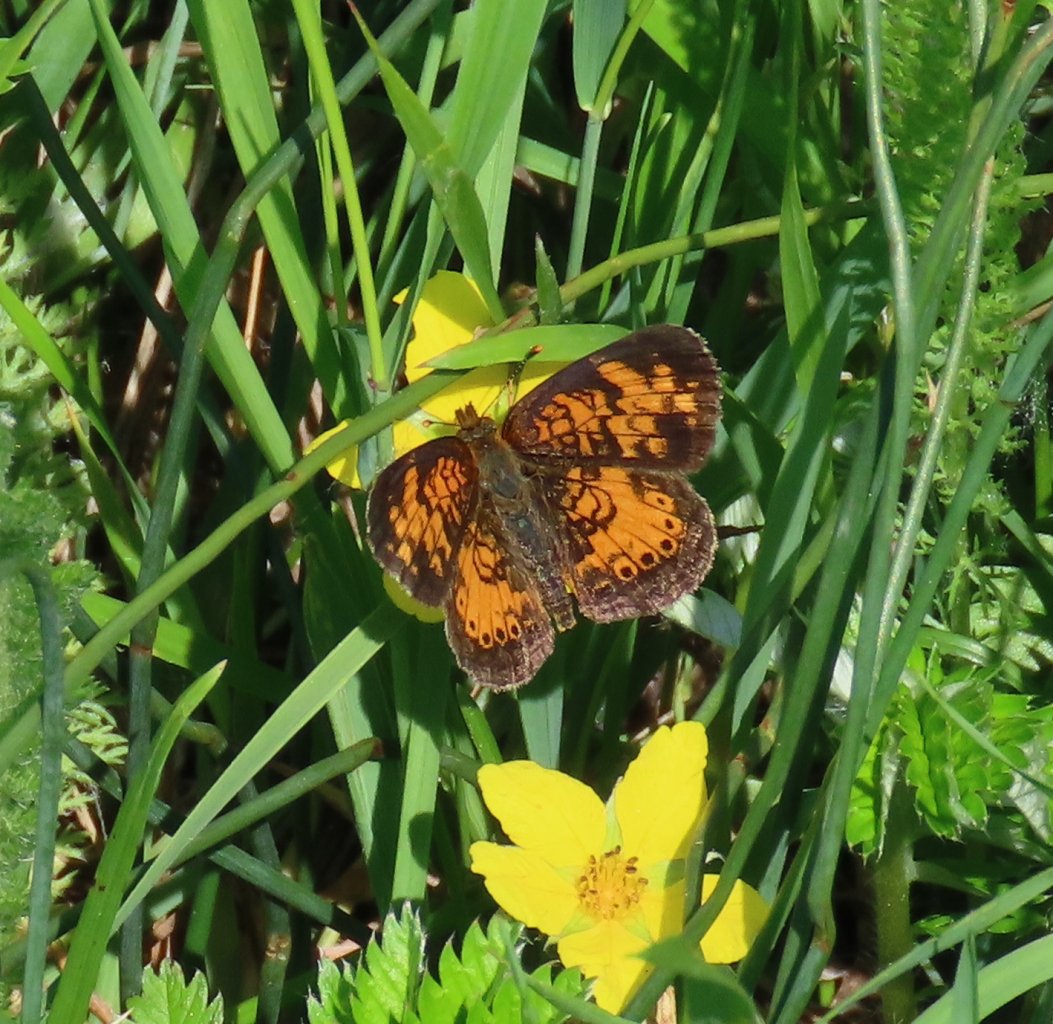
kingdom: Animalia
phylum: Arthropoda
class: Insecta
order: Lepidoptera
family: Nymphalidae
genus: Phyciodes
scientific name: Phyciodes tharos
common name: Northern Crescent
